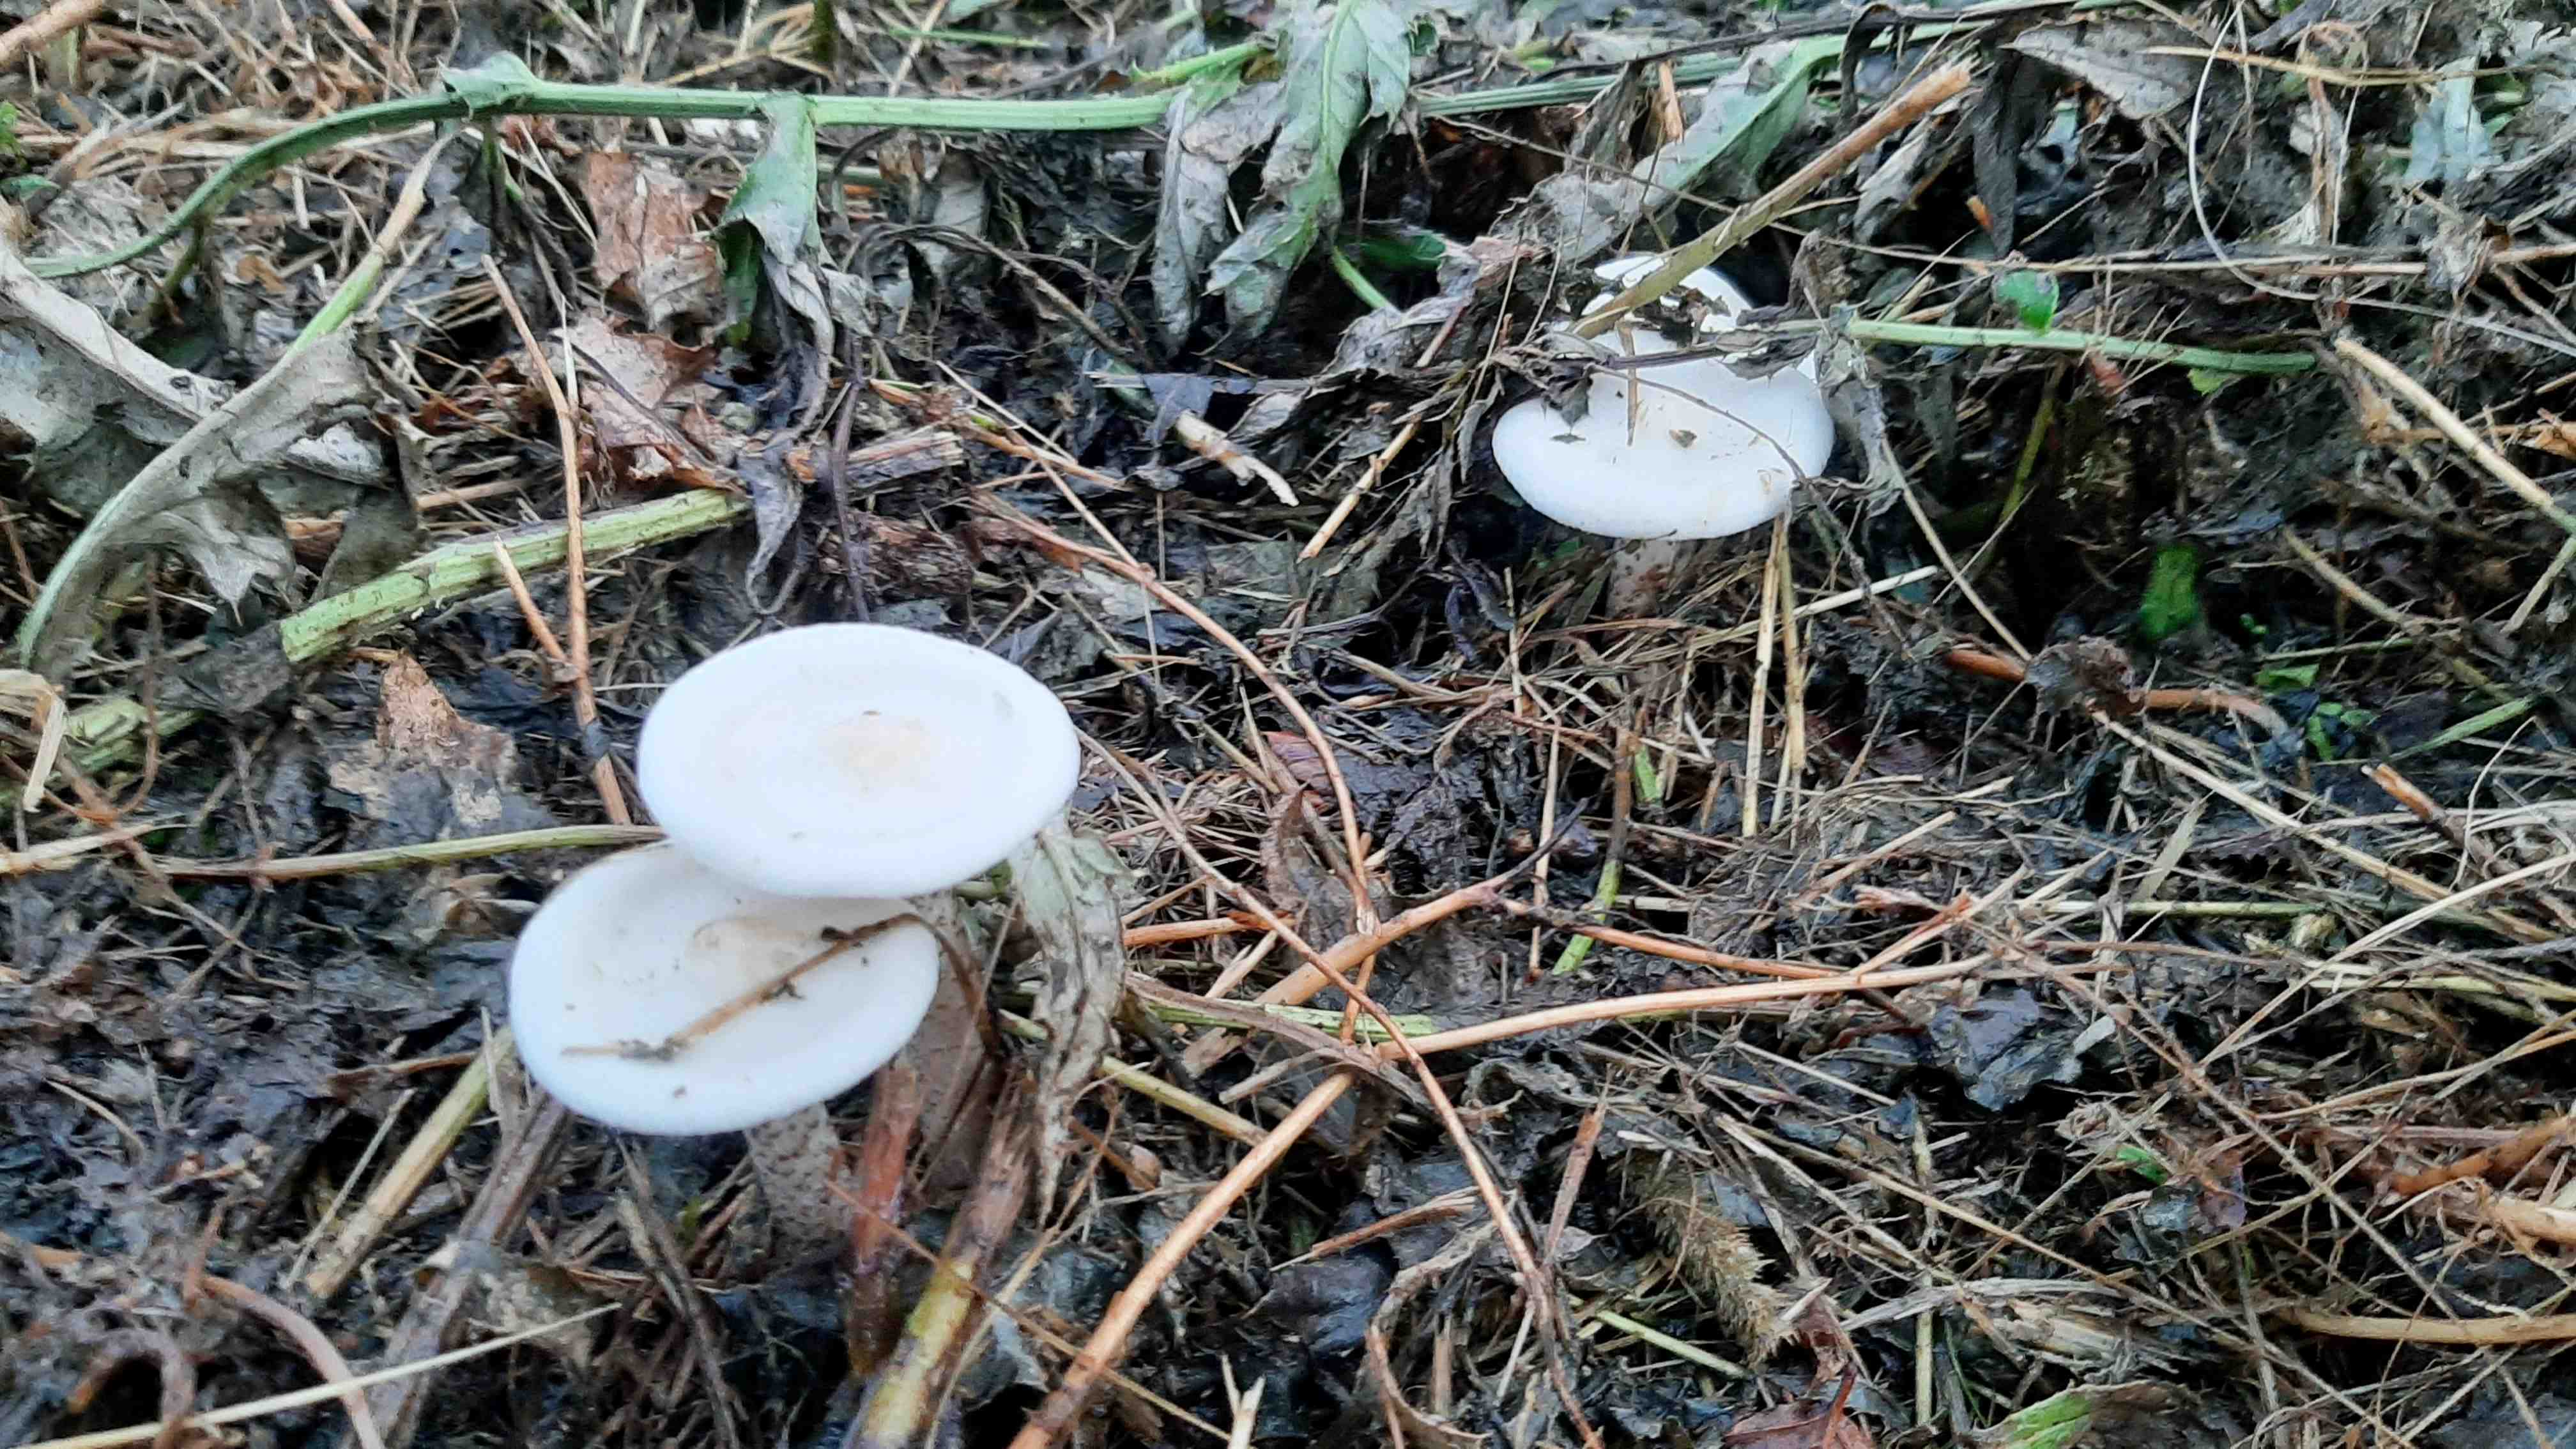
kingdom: Fungi
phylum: Basidiomycota
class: Agaricomycetes
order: Agaricales
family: Tricholomataceae
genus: Melanoleuca
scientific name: Melanoleuca verrucipes
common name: rufodet munkehat
